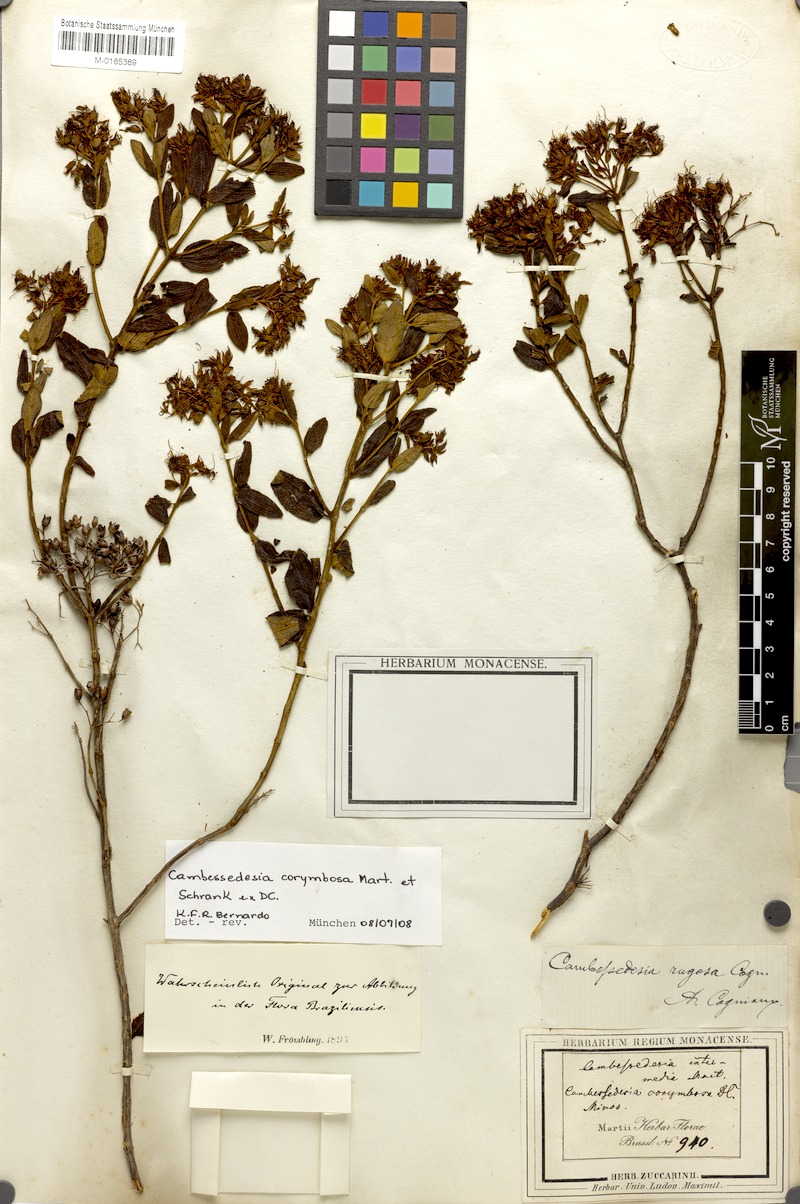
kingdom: Plantae
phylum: Tracheophyta
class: Magnoliopsida
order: Myrtales
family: Melastomataceae
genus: Cambessedesia
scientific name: Cambessedesia corymbosa
